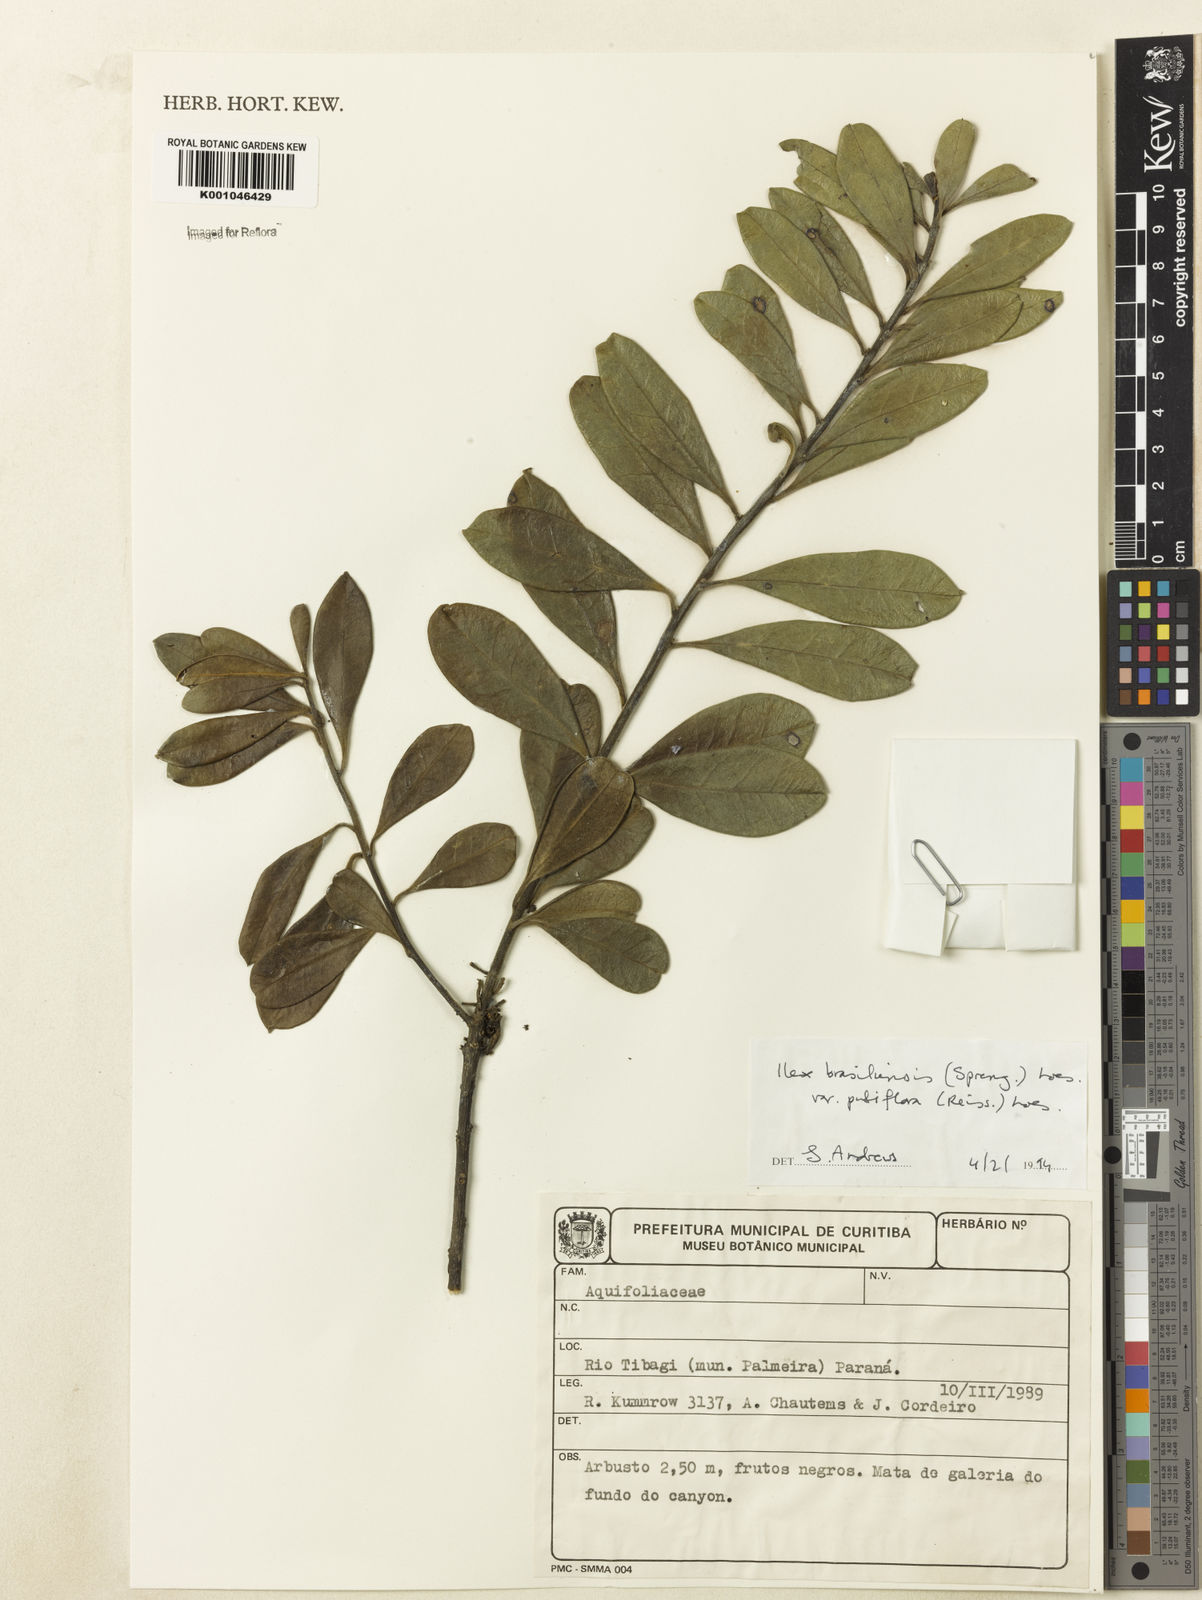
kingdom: Plantae
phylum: Tracheophyta
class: Magnoliopsida
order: Aquifoliales
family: Aquifoliaceae
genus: Ilex
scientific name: Ilex brasiliensis
